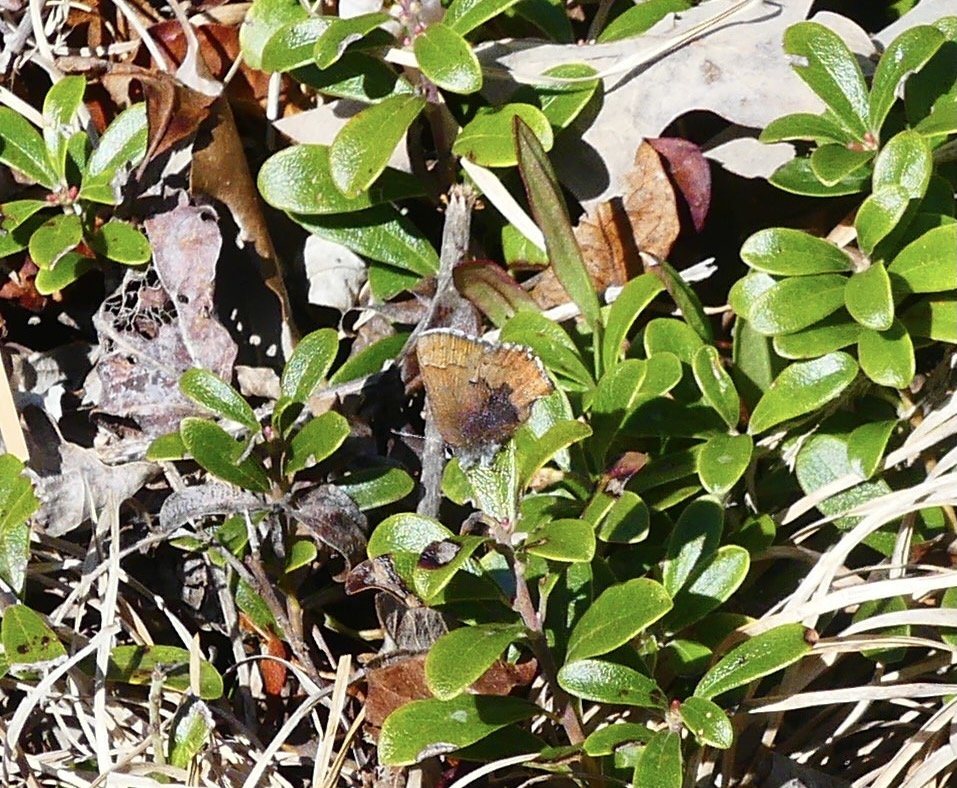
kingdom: Animalia
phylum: Arthropoda
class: Insecta
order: Lepidoptera
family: Lycaenidae
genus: Incisalia
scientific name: Incisalia irioides
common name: Brown Elfin
